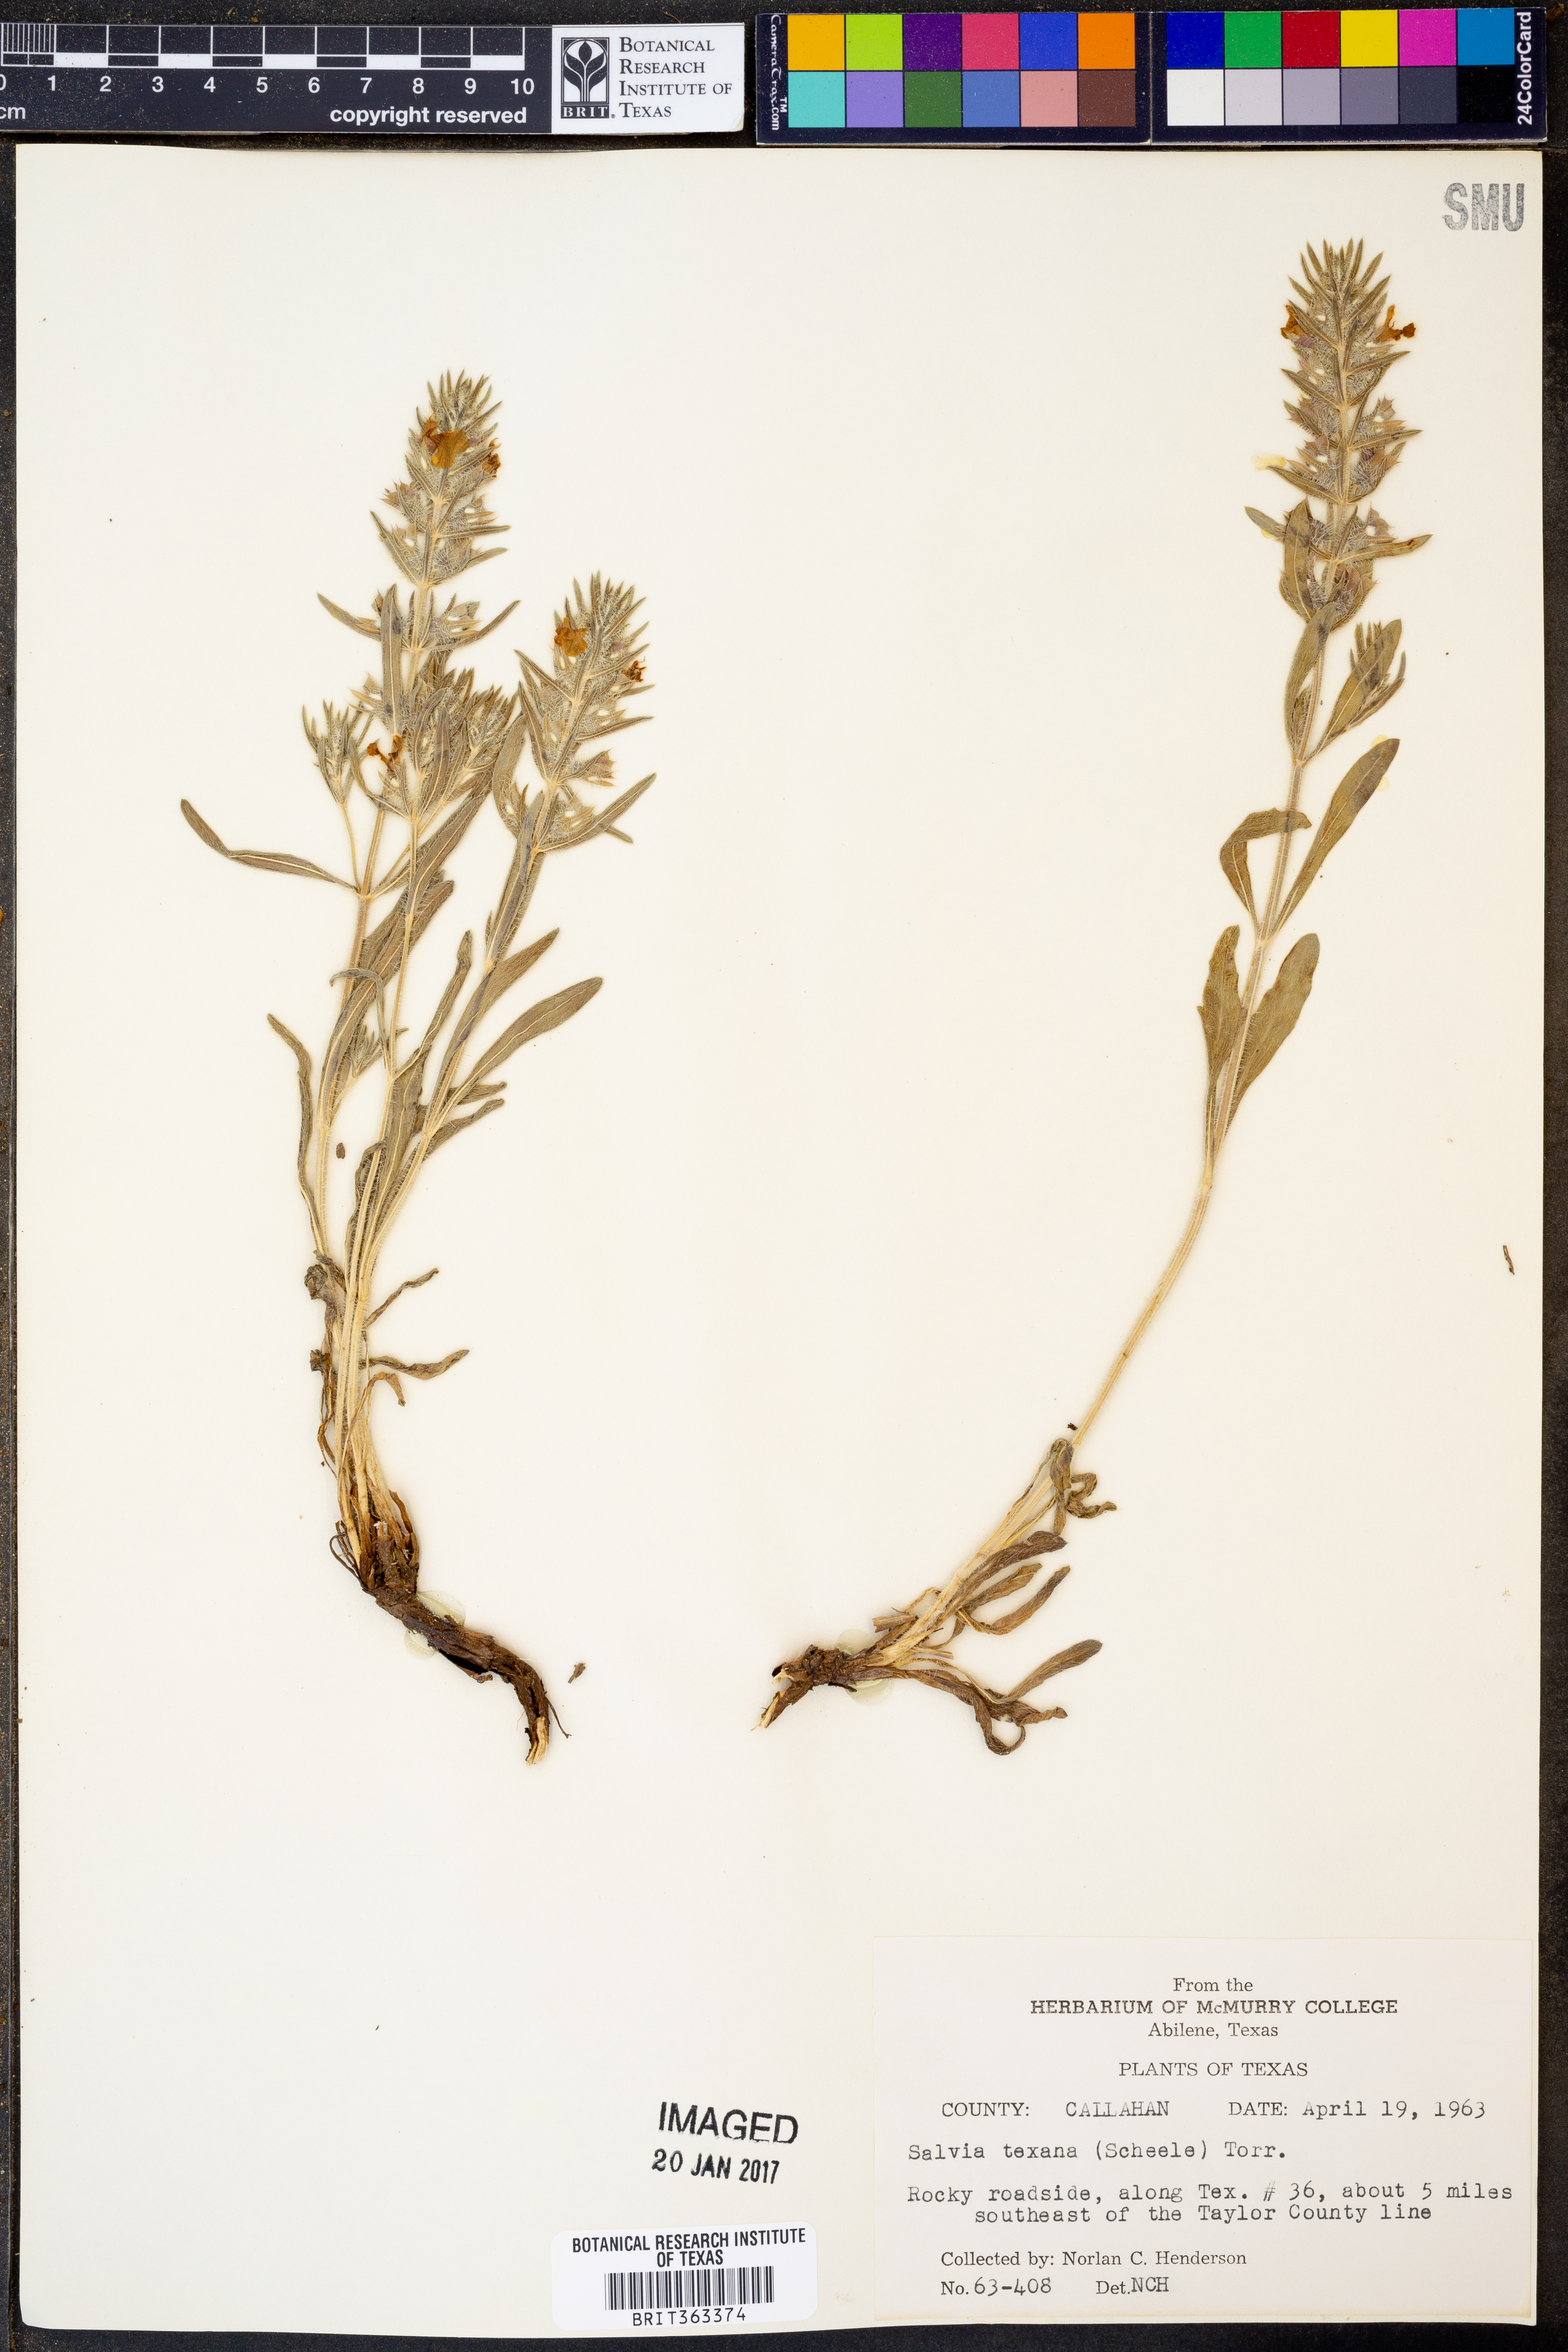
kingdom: Plantae
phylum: Tracheophyta
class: Magnoliopsida
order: Lamiales
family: Lamiaceae
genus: Salvia
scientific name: Salvia texana
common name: Texas sage
